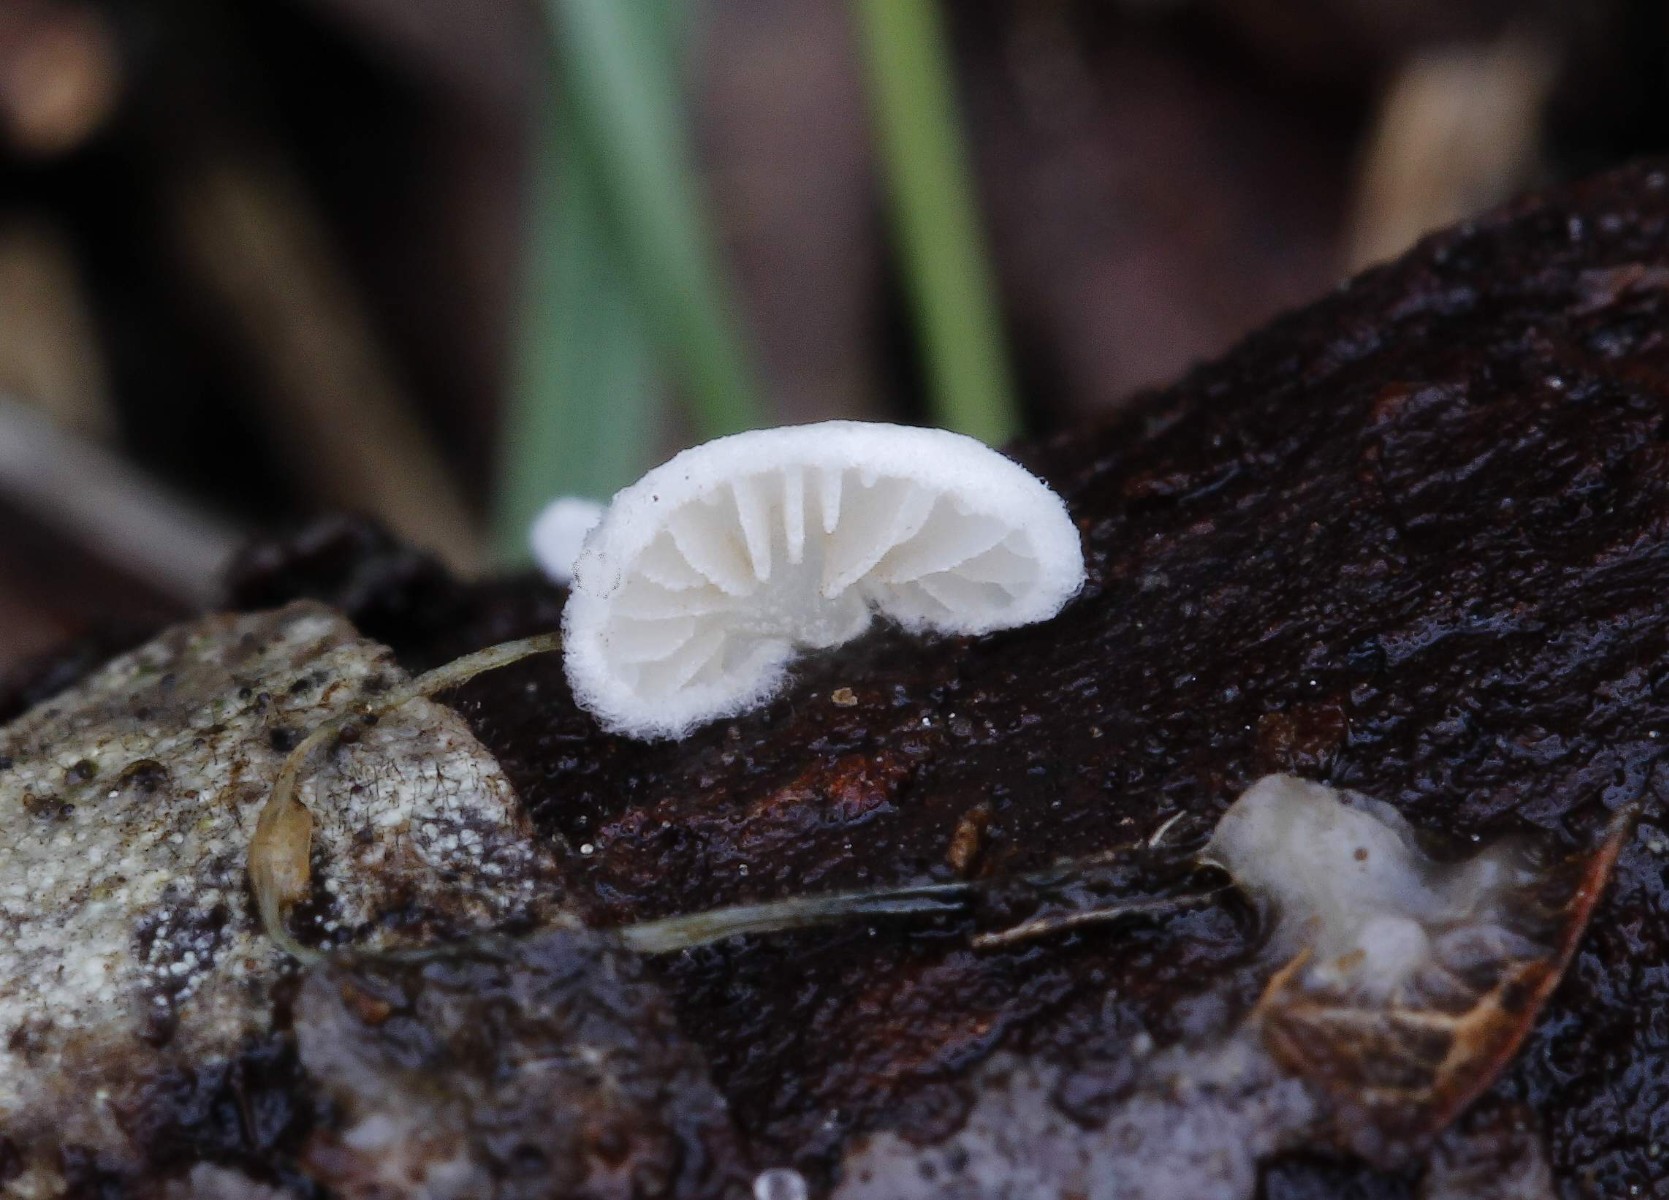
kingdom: Fungi
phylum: Basidiomycota
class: Agaricomycetes
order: Agaricales
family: Entolomataceae
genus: Clitopilus
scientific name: Clitopilus hobsonii
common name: Miller's oysterling
